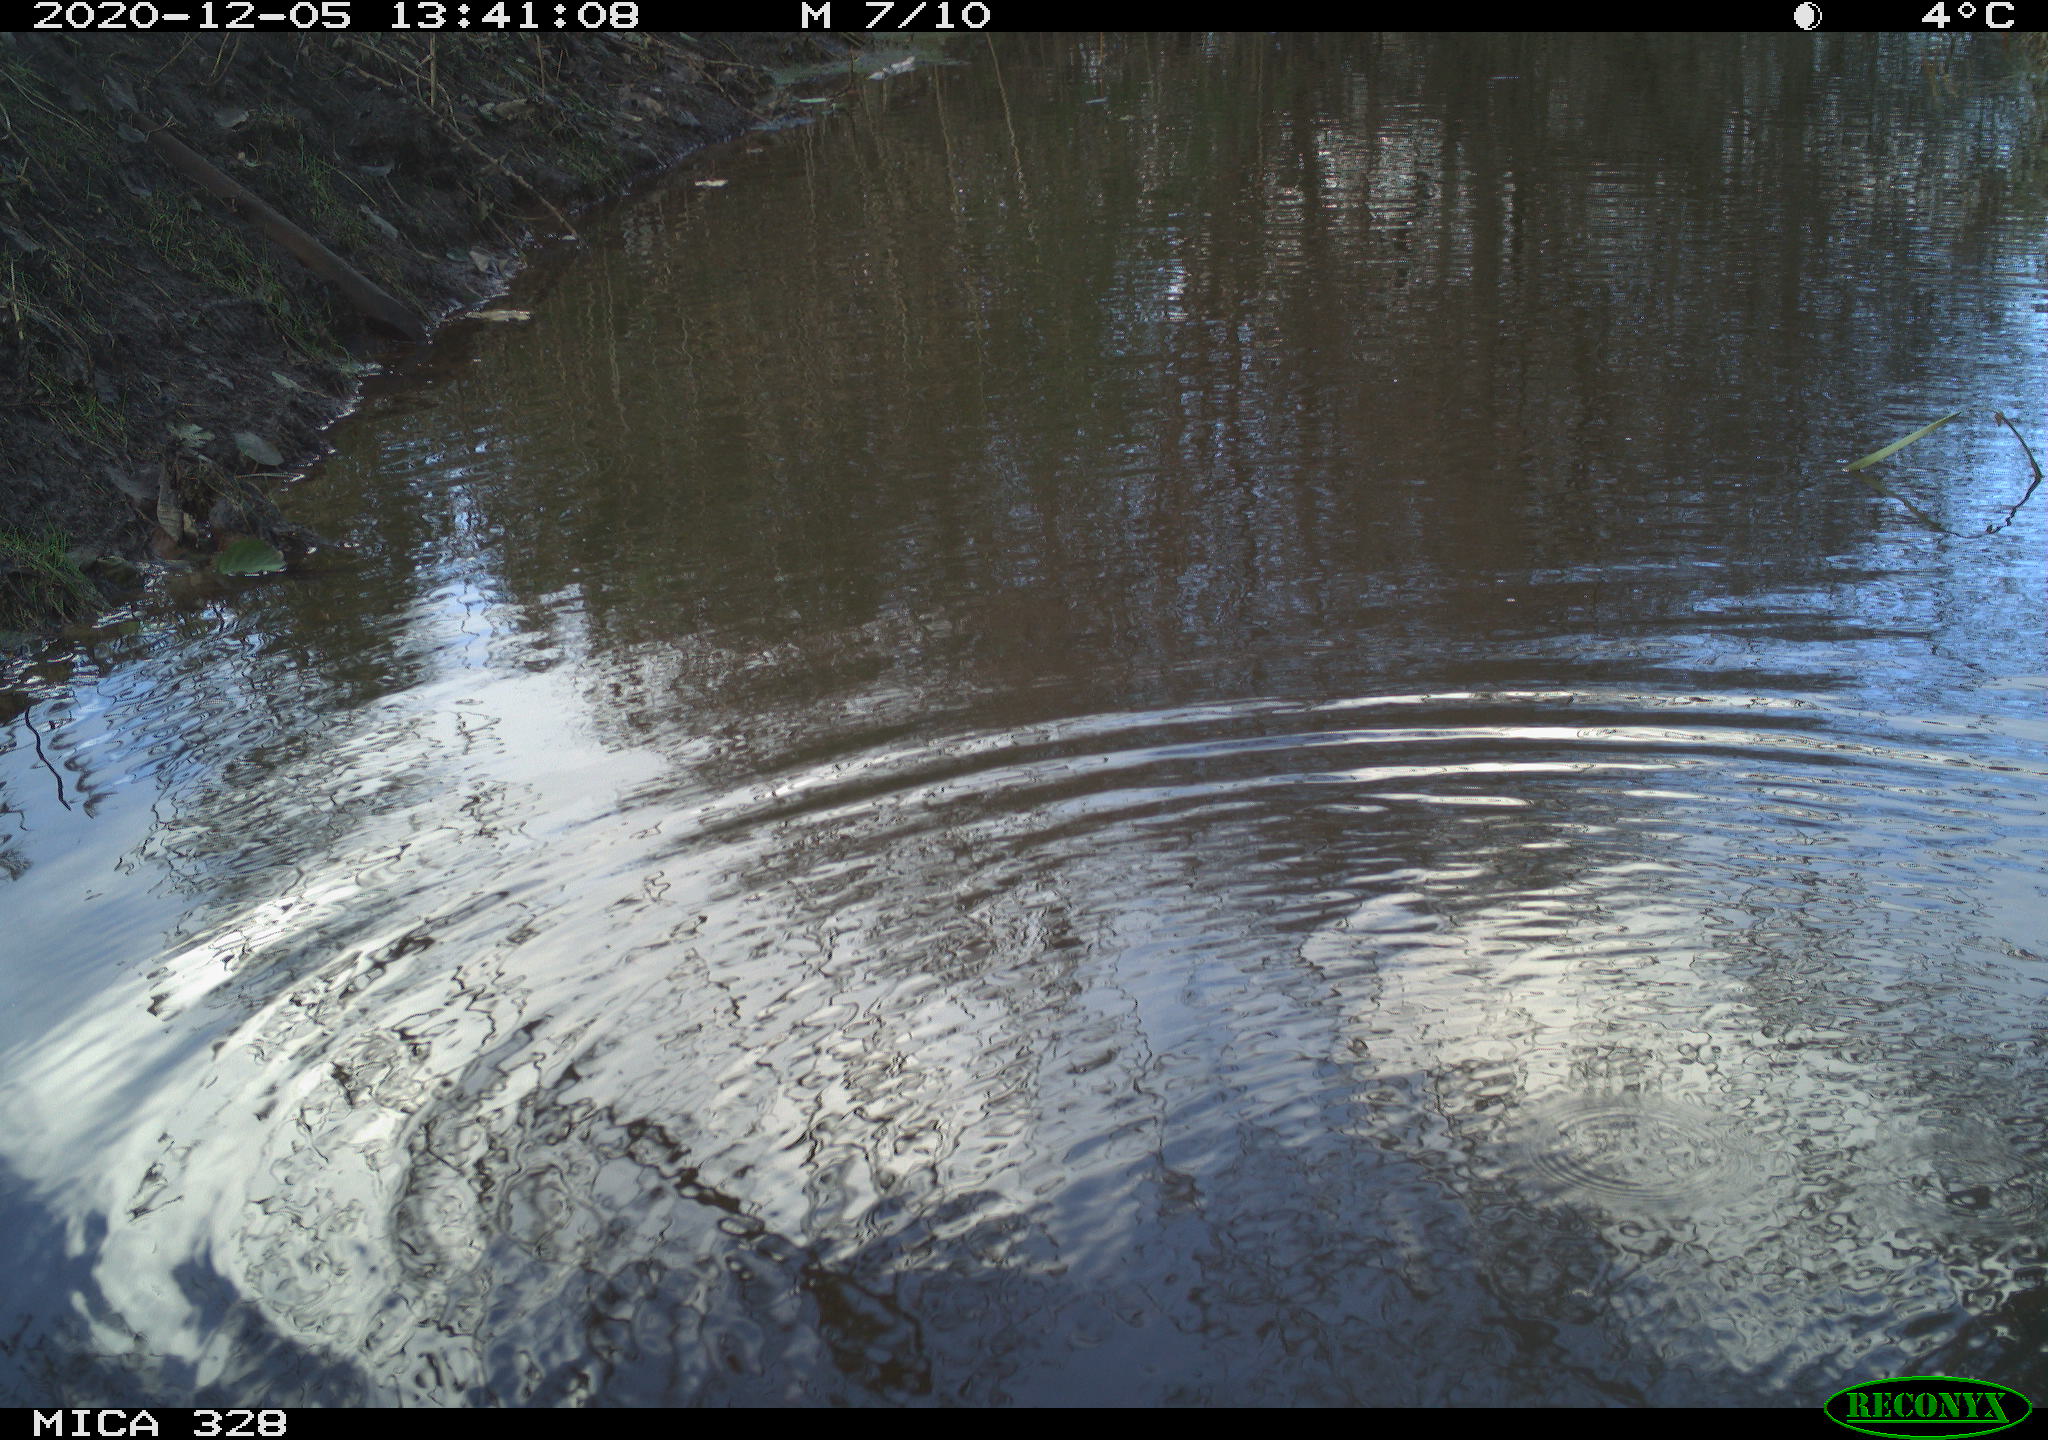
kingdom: Animalia
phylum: Chordata
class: Aves
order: Pelecaniformes
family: Ardeidae
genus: Ardea
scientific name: Ardea alba
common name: Great egret
